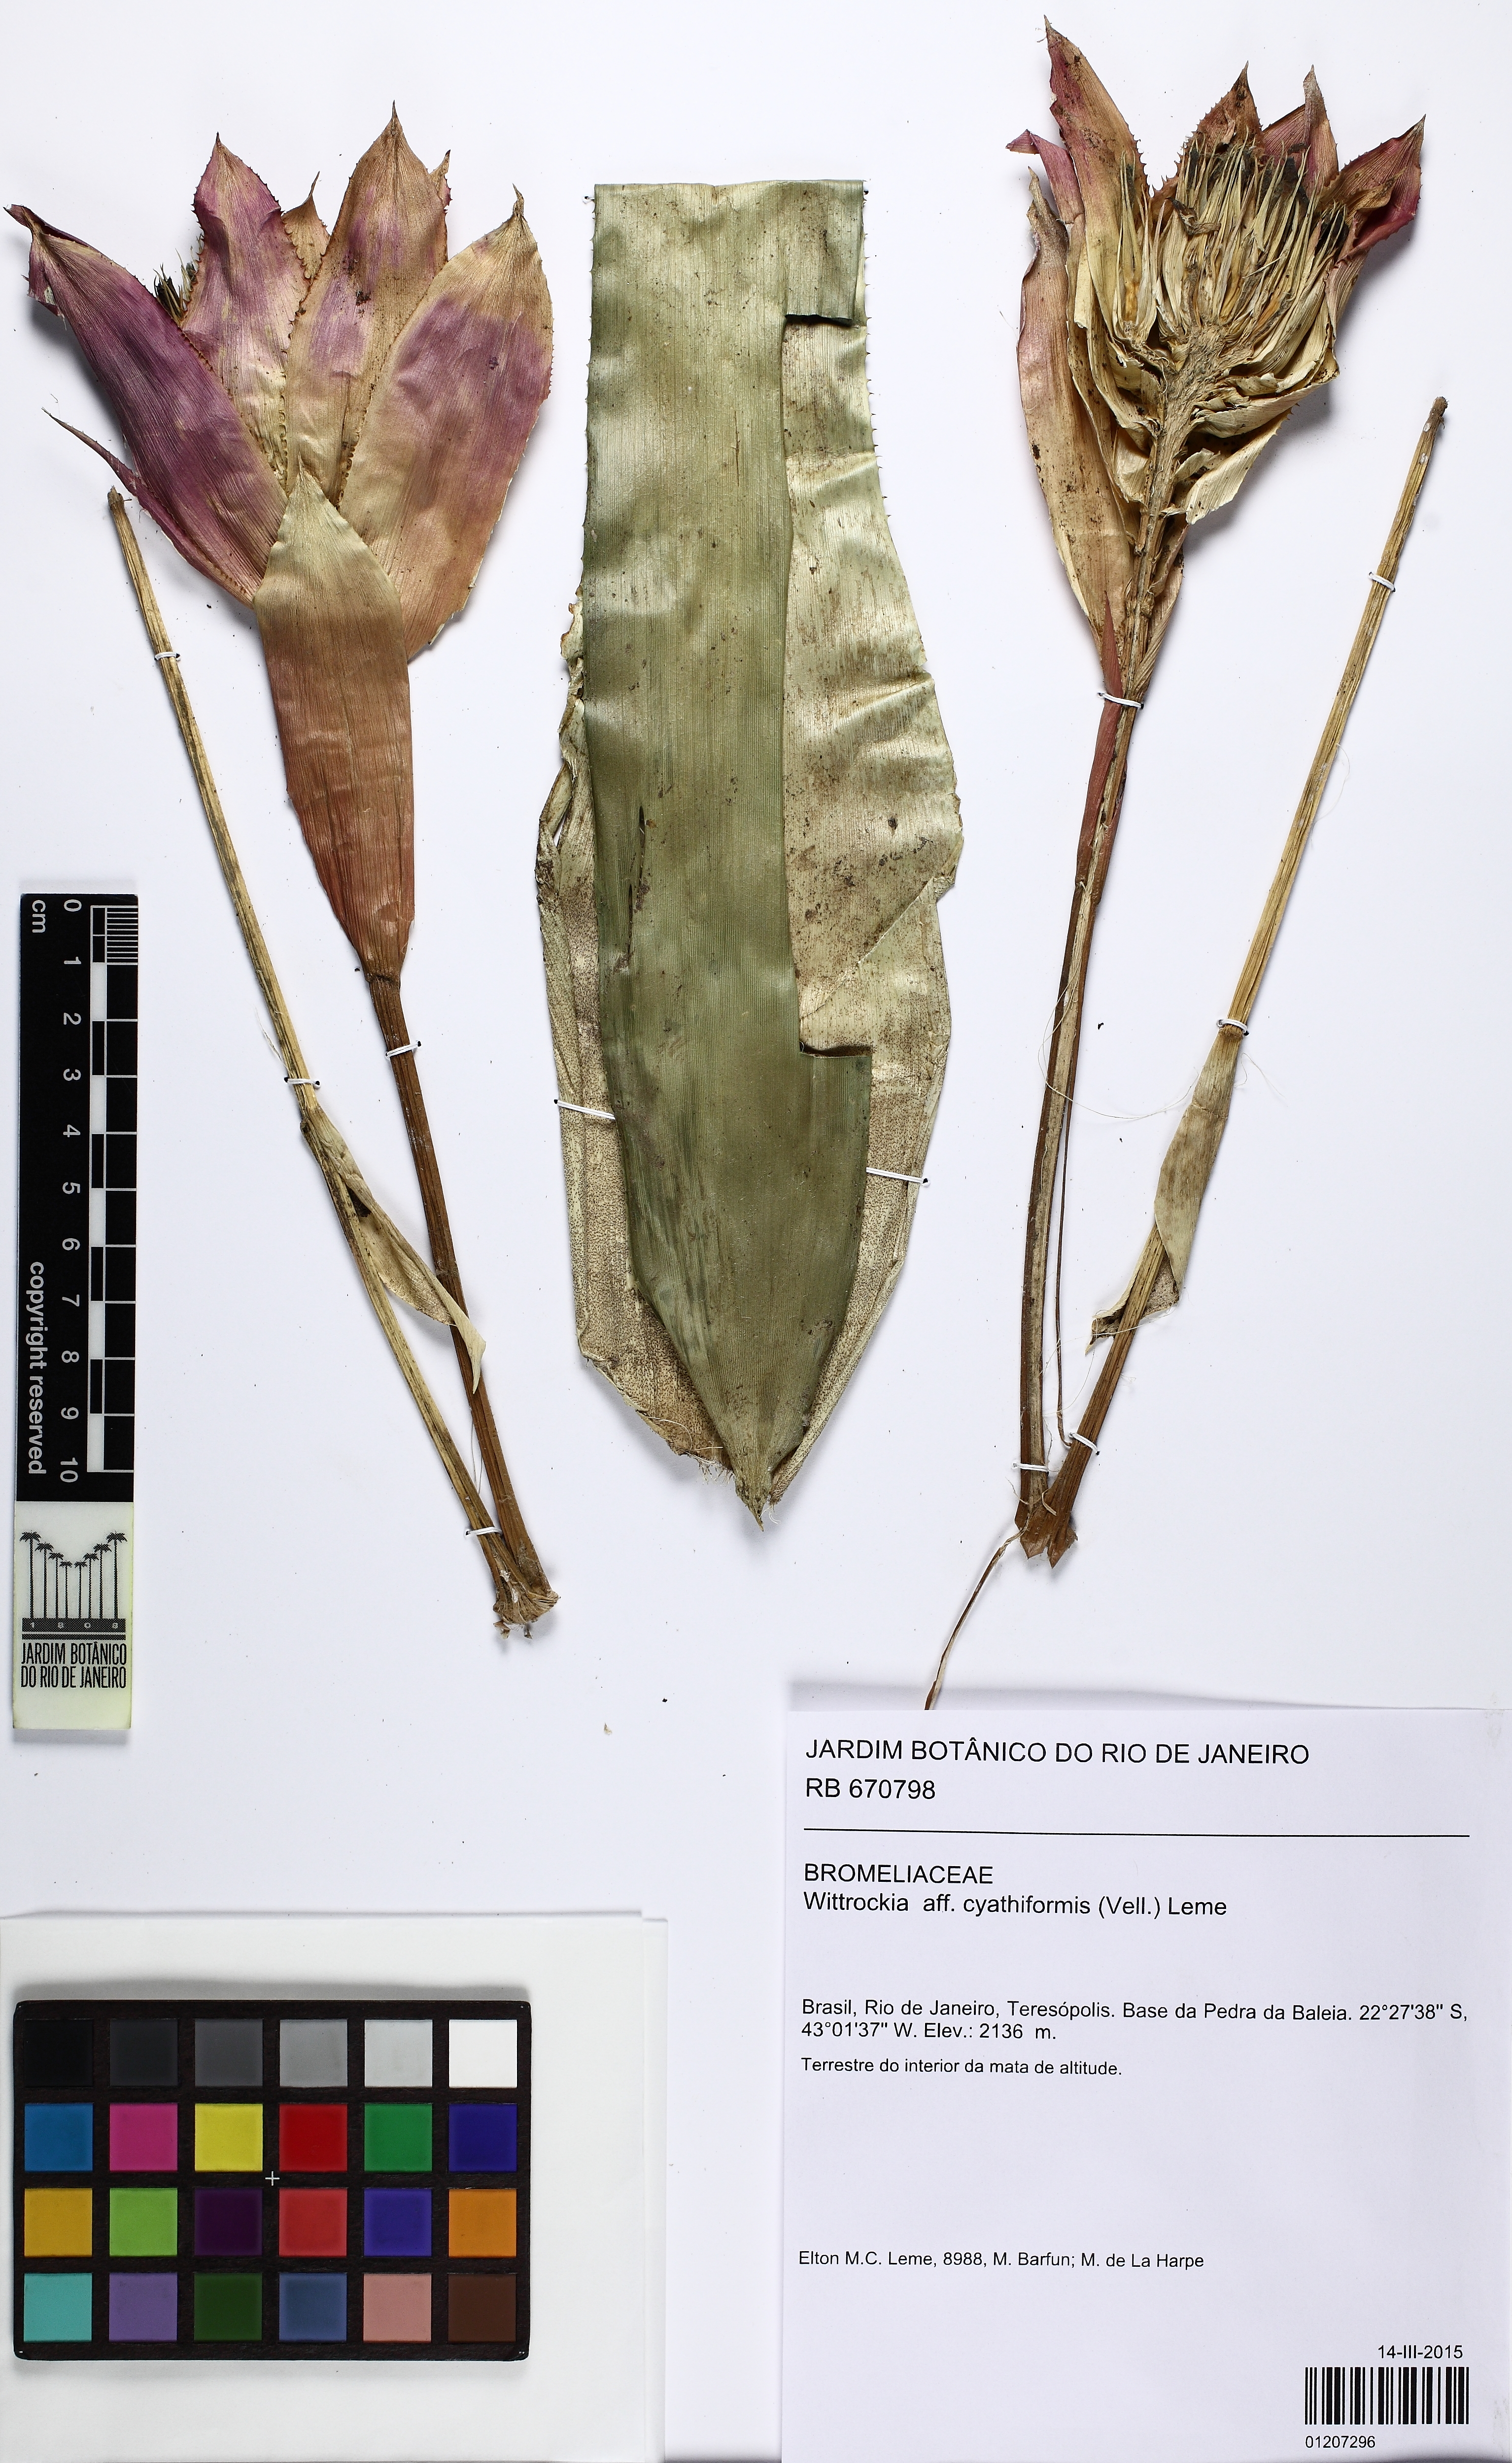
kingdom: Plantae
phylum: Tracheophyta
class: Liliopsida
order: Poales
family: Bromeliaceae
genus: Wittrockia
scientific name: Wittrockia cyathiformis
